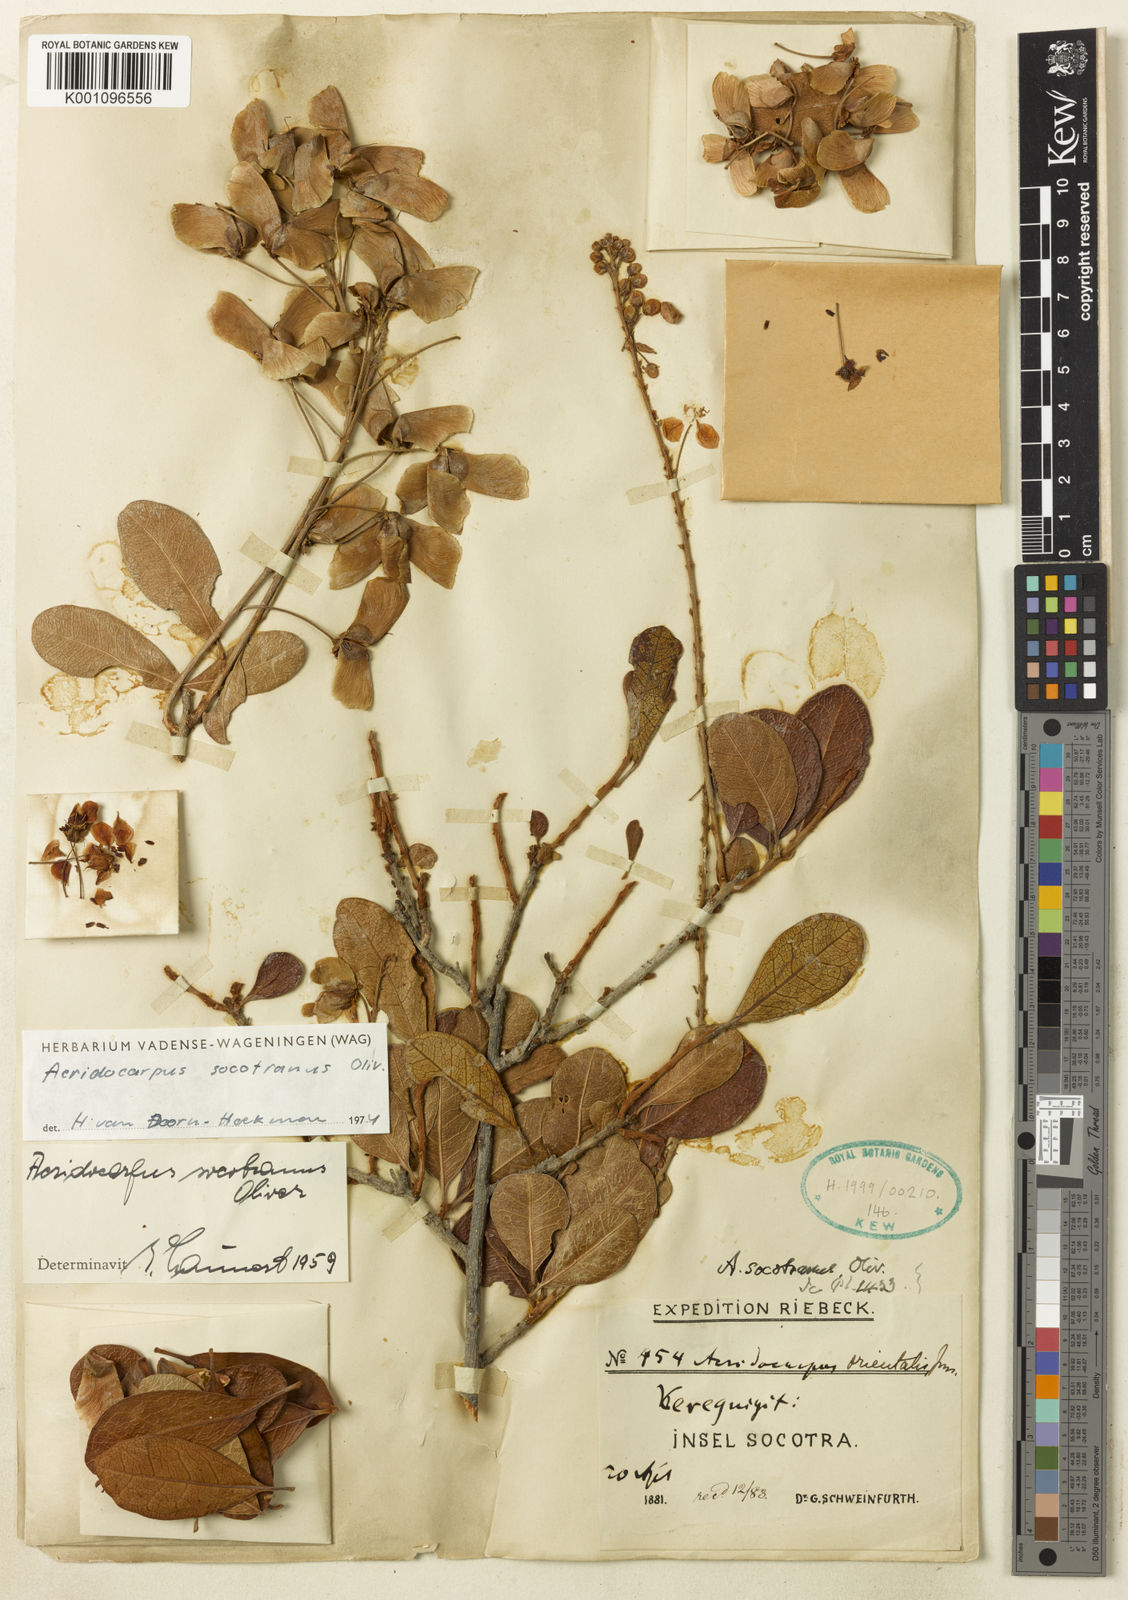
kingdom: Plantae
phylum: Tracheophyta
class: Magnoliopsida
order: Malpighiales
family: Malpighiaceae
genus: Acridocarpus
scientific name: Acridocarpus socotranus
